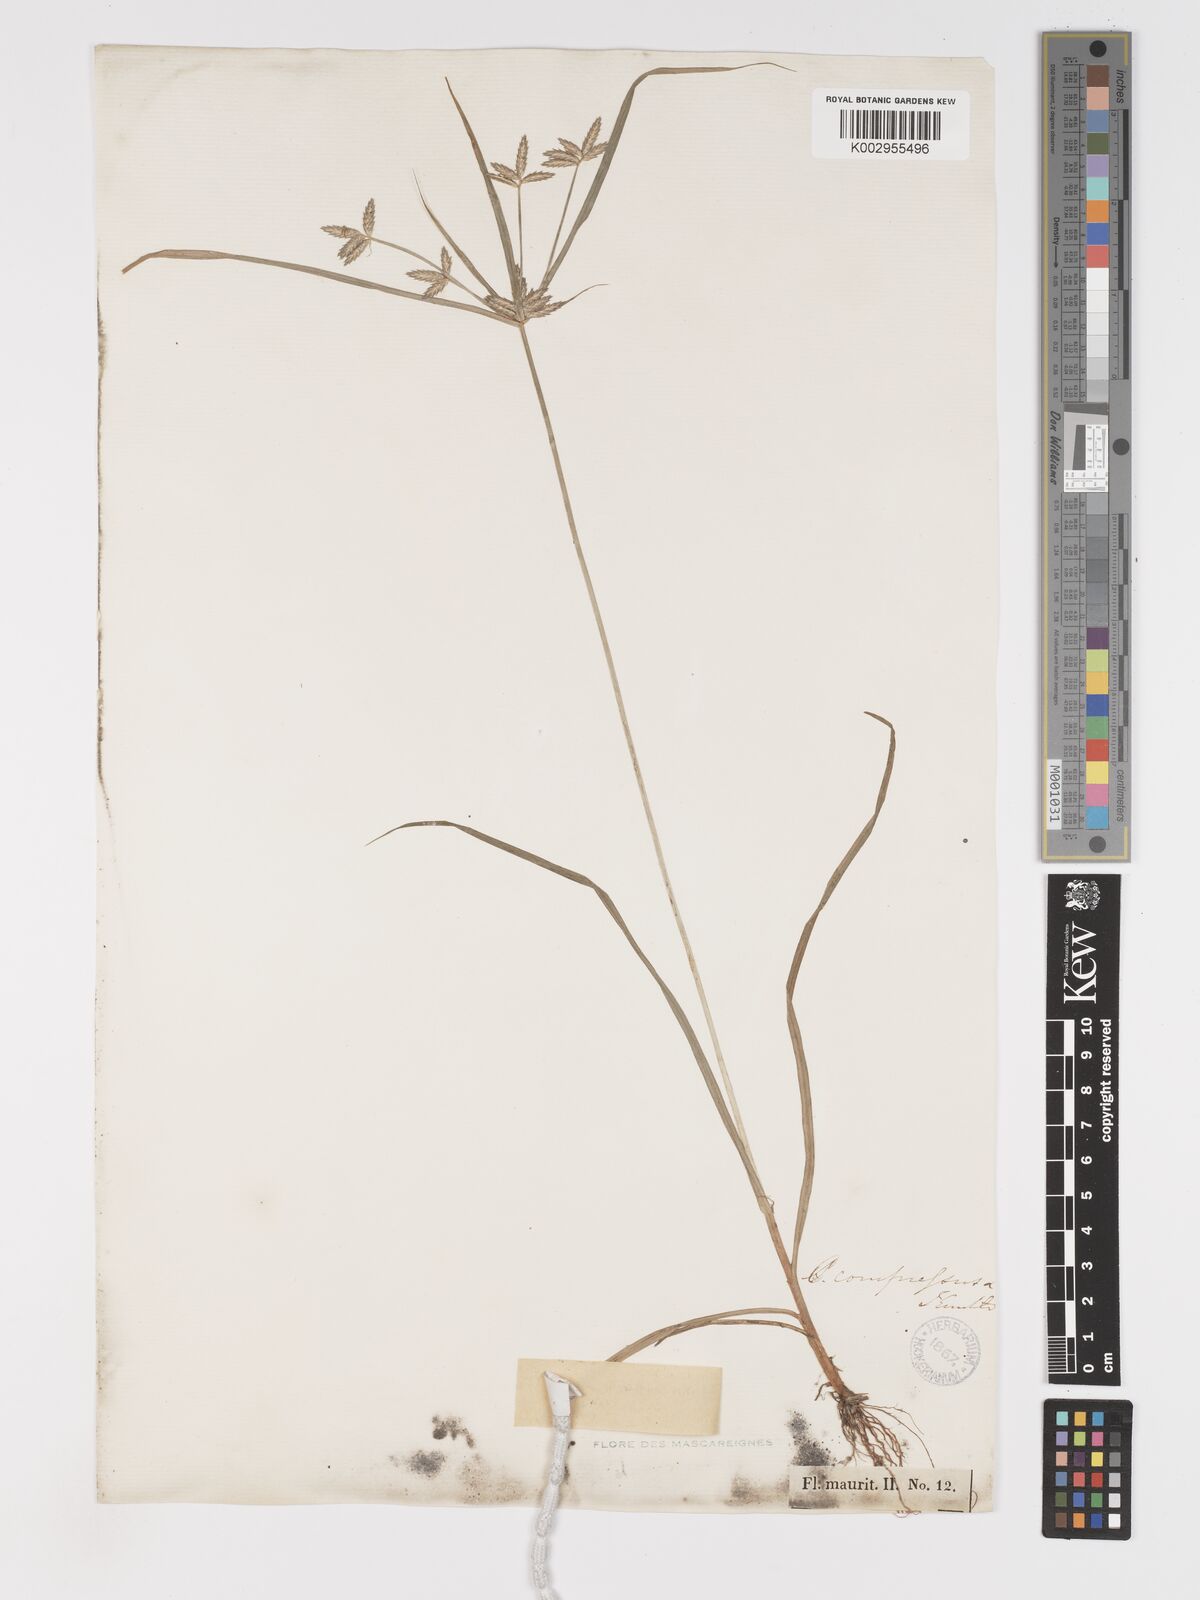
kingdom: Plantae
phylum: Tracheophyta
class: Liliopsida
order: Poales
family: Cyperaceae
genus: Cyperus
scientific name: Cyperus compressus
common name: Poorland flatsedge
